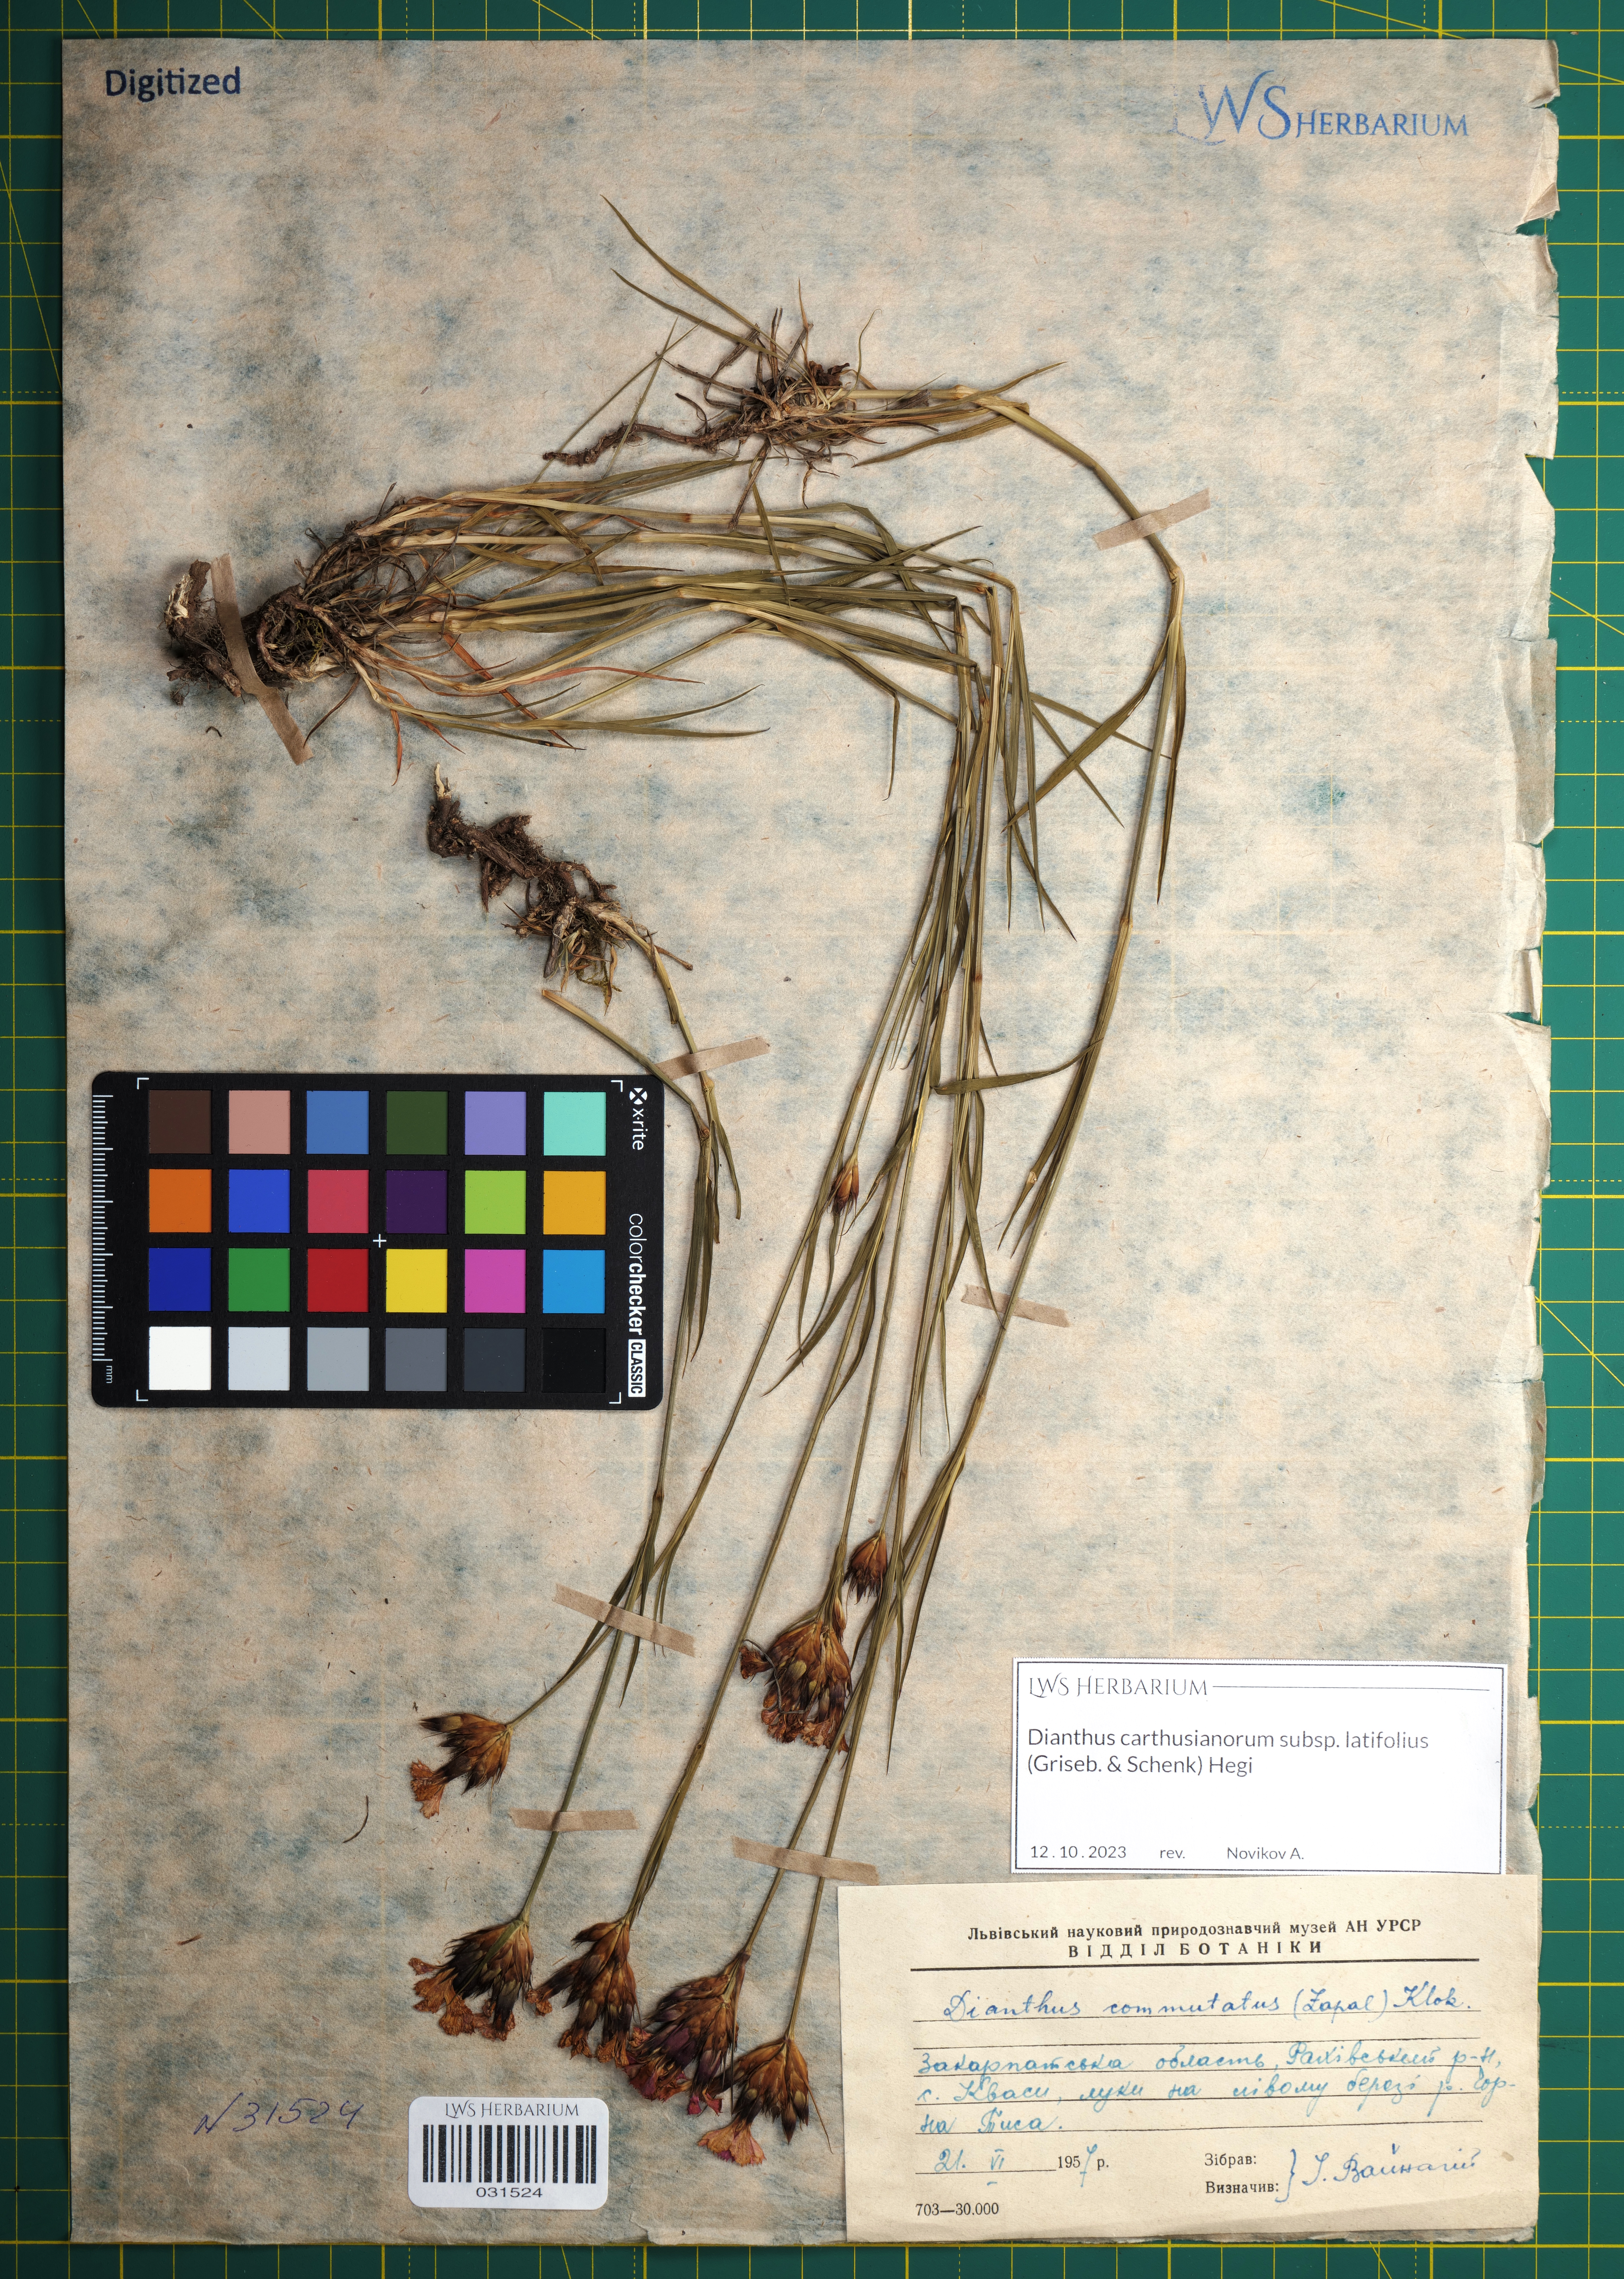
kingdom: Plantae
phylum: Tracheophyta
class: Magnoliopsida
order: Caryophyllales
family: Caryophyllaceae
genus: Dianthus
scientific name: Dianthus carthusianorum
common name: Carthusian pink
